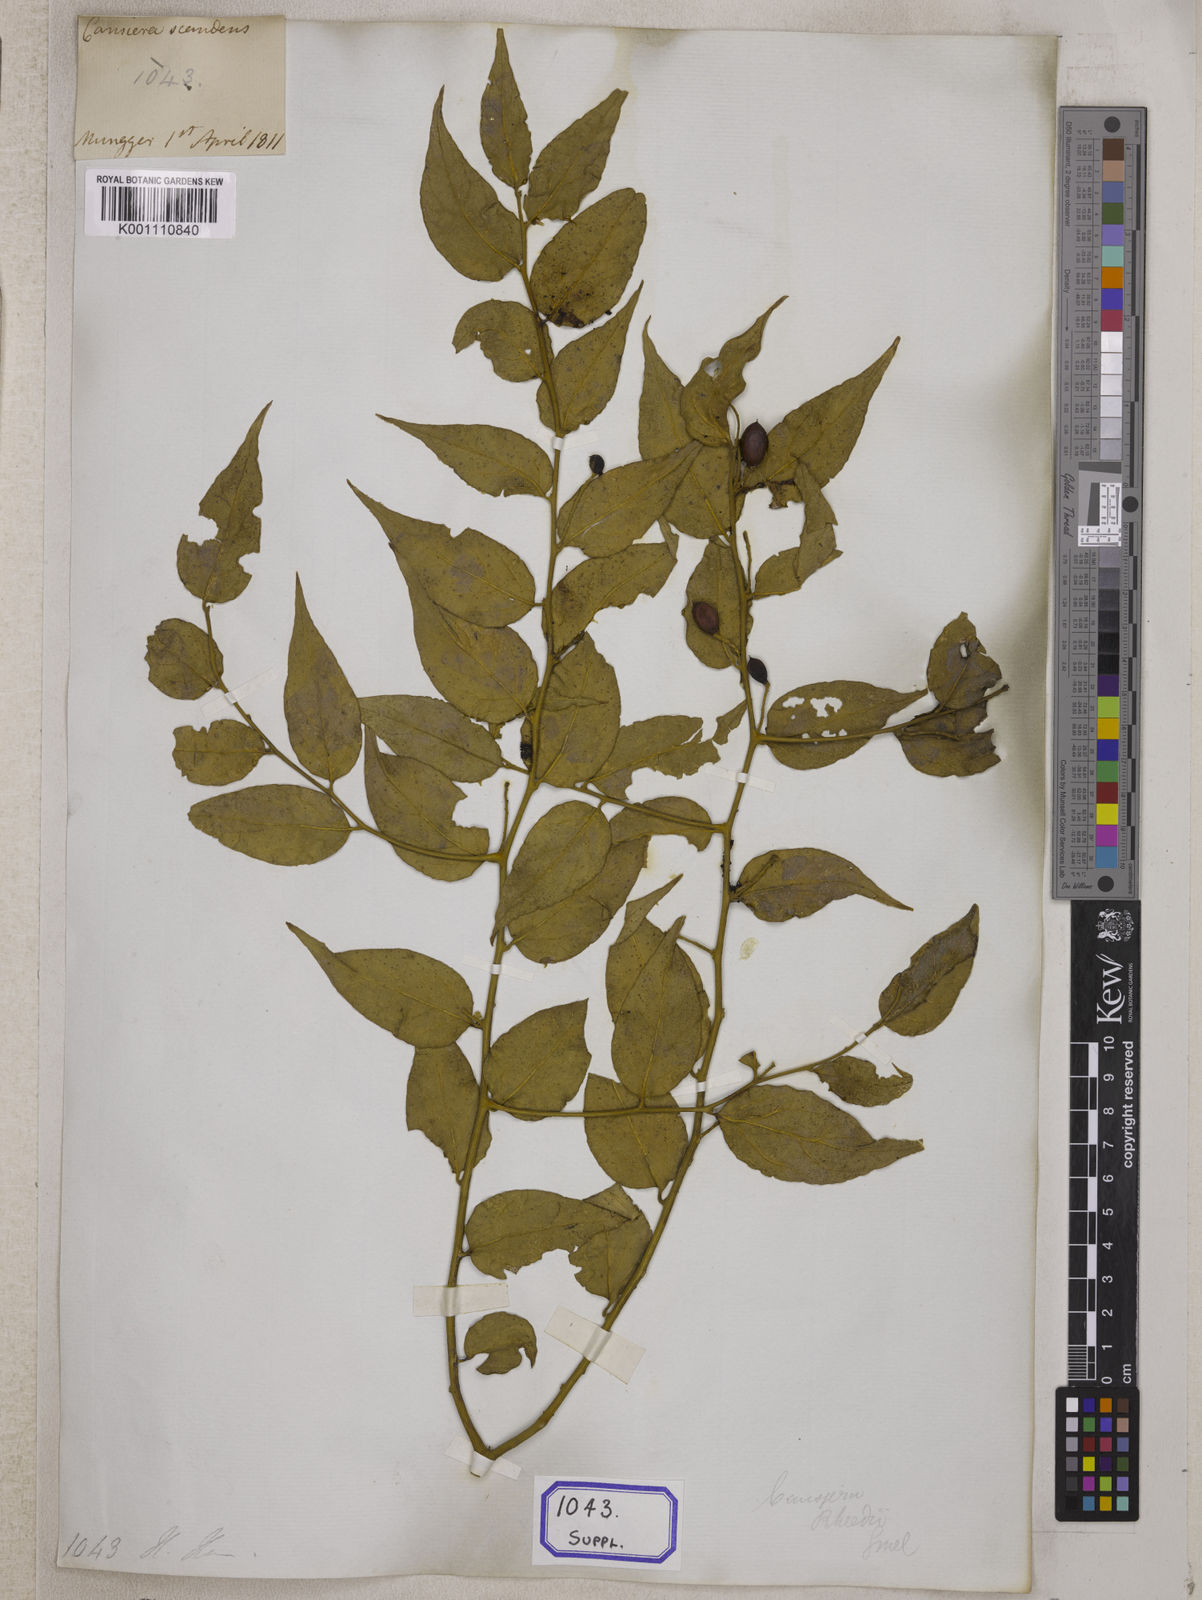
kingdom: Plantae
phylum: Tracheophyta
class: Magnoliopsida
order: Santalales
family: Opiliaceae
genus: Cansjera
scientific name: Cansjera rheedei
